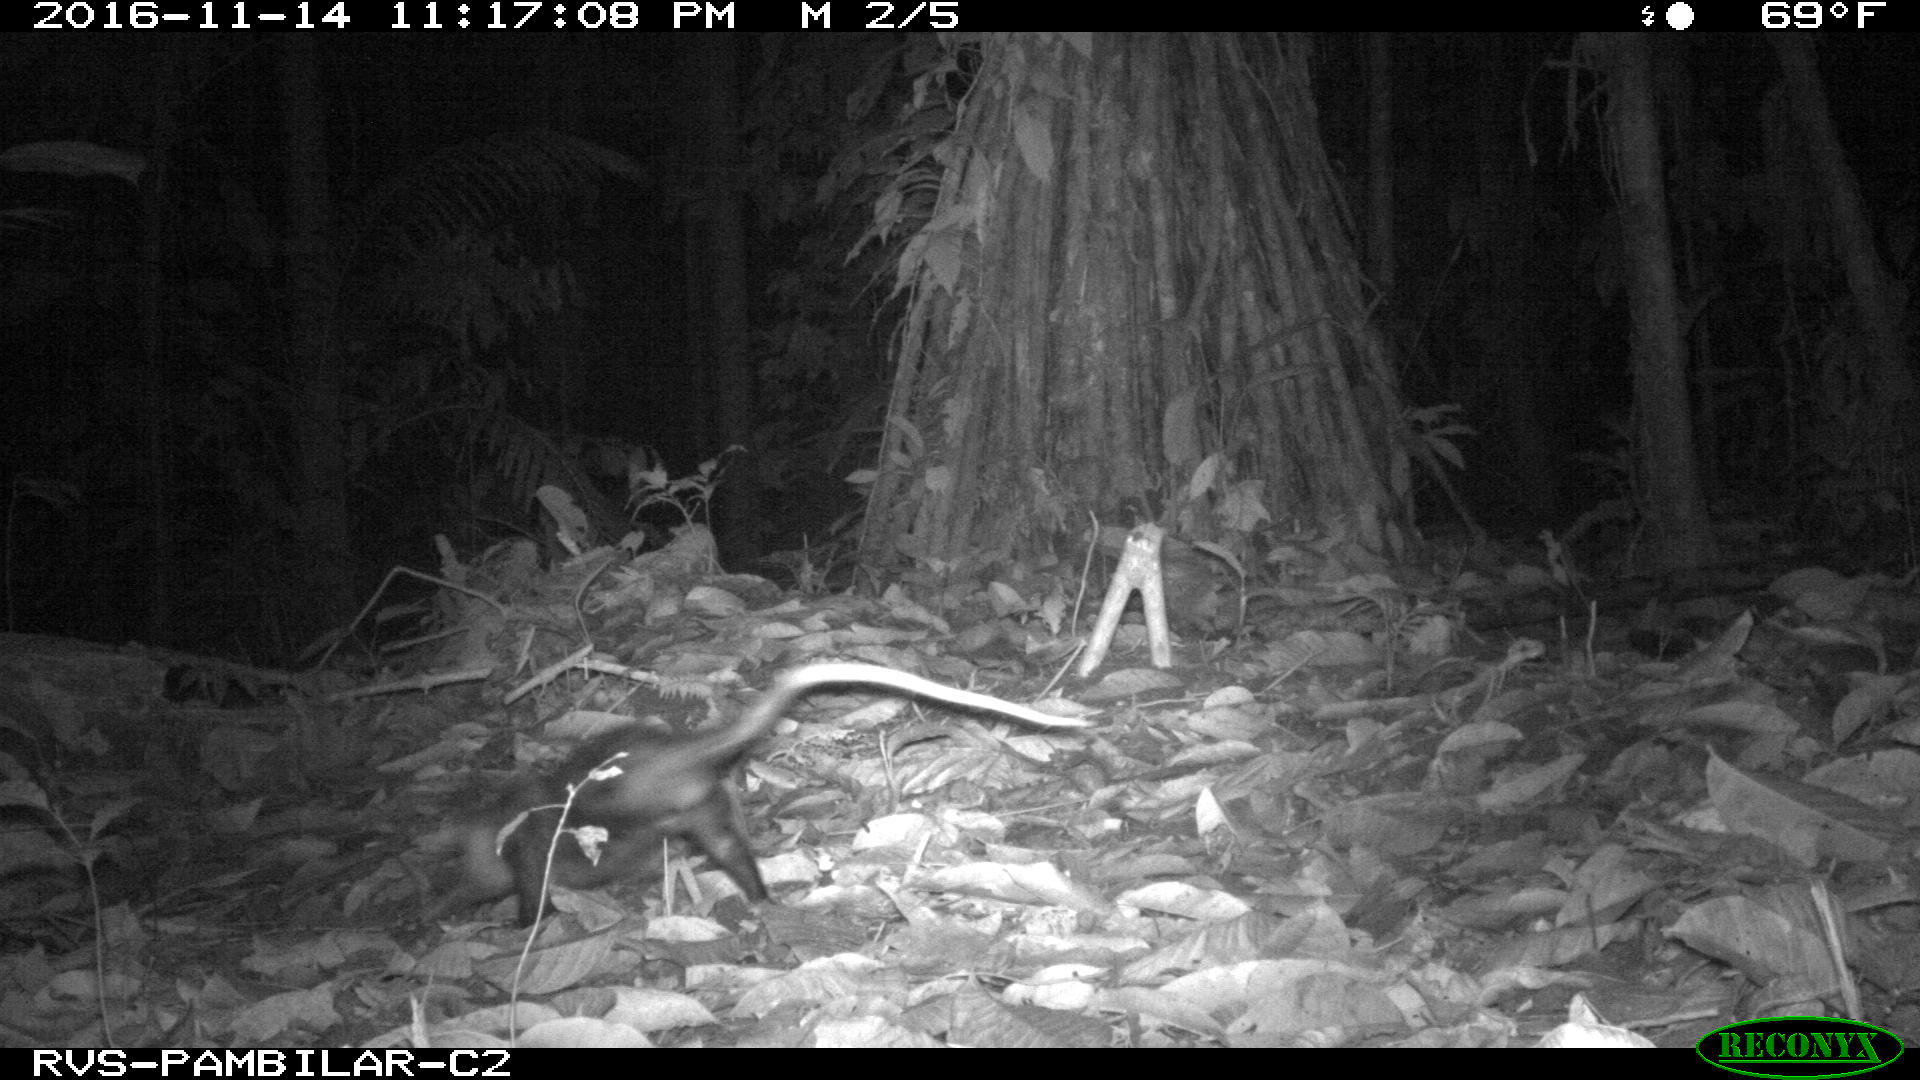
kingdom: Animalia
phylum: Chordata
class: Mammalia
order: Didelphimorphia
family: Didelphidae
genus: Didelphis
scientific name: Didelphis marsupialis
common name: Common opossum
